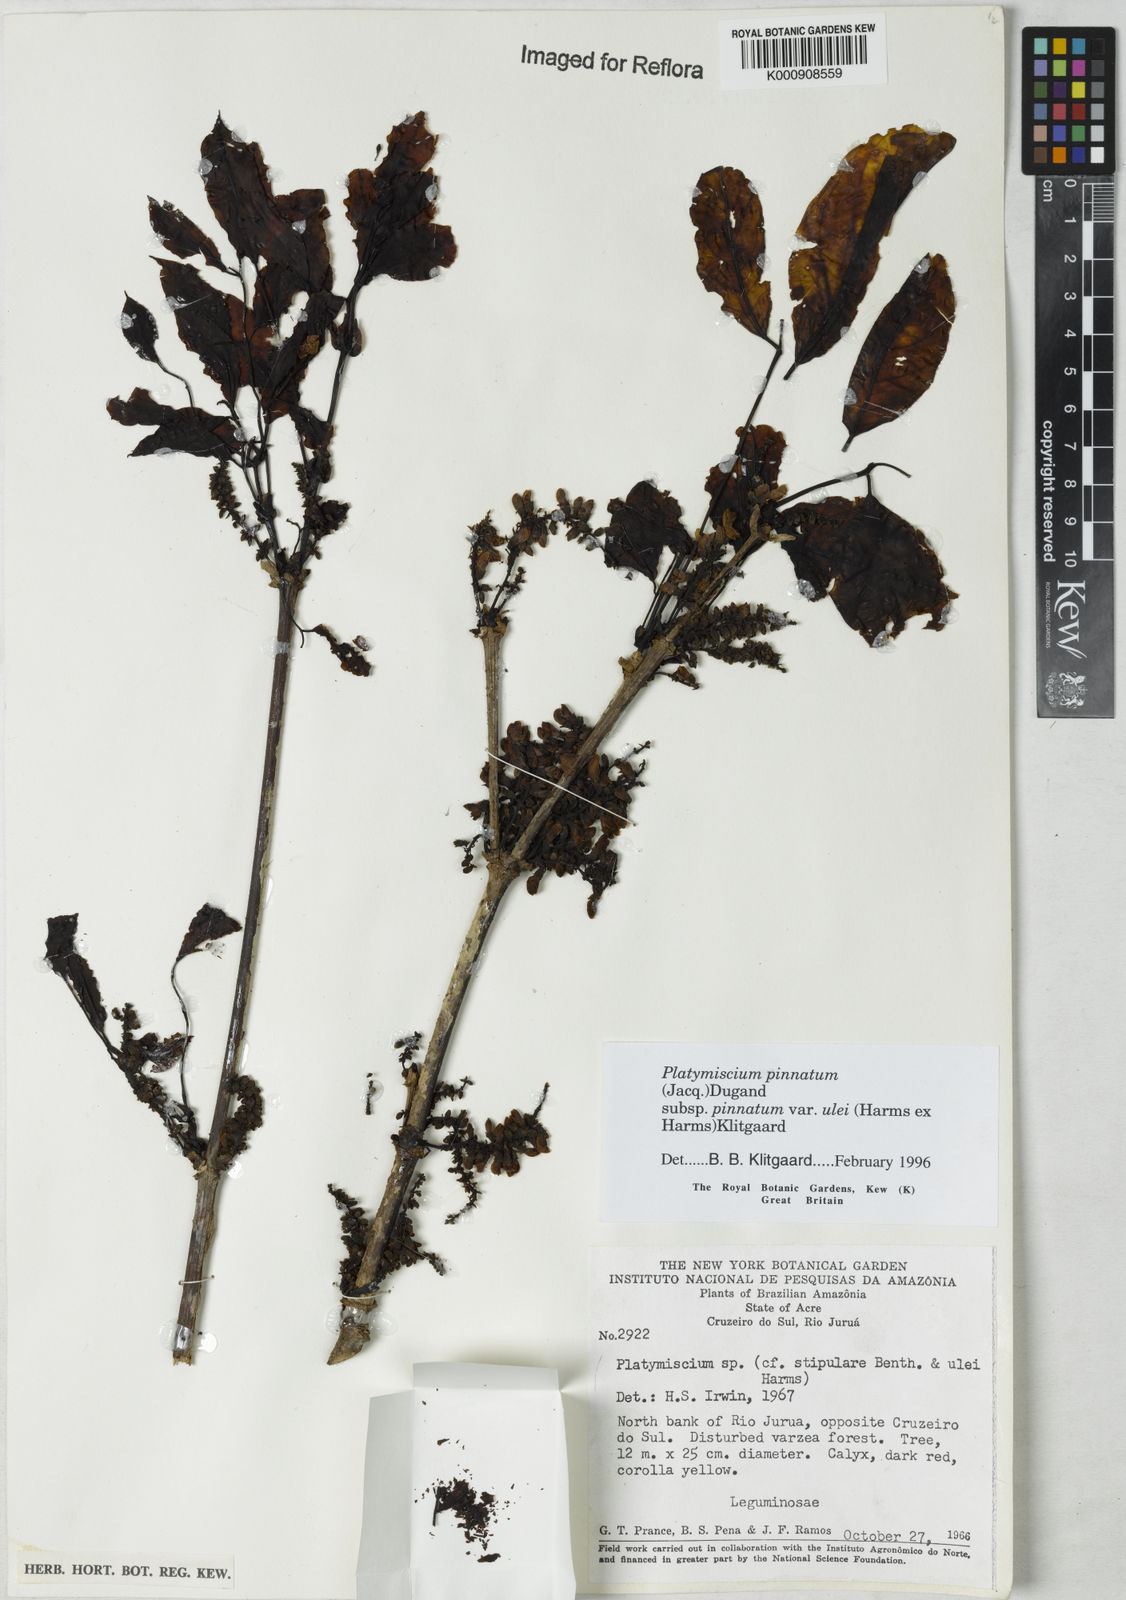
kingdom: Plantae
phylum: Tracheophyta
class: Magnoliopsida
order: Fabales
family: Fabaceae
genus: Platymiscium
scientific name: Platymiscium pinnatum
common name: Panama redwood
